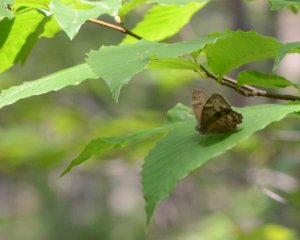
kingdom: Animalia
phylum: Arthropoda
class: Insecta
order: Lepidoptera
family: Nymphalidae
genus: Lethe
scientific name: Lethe anthedon
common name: Northern Pearly-Eye
